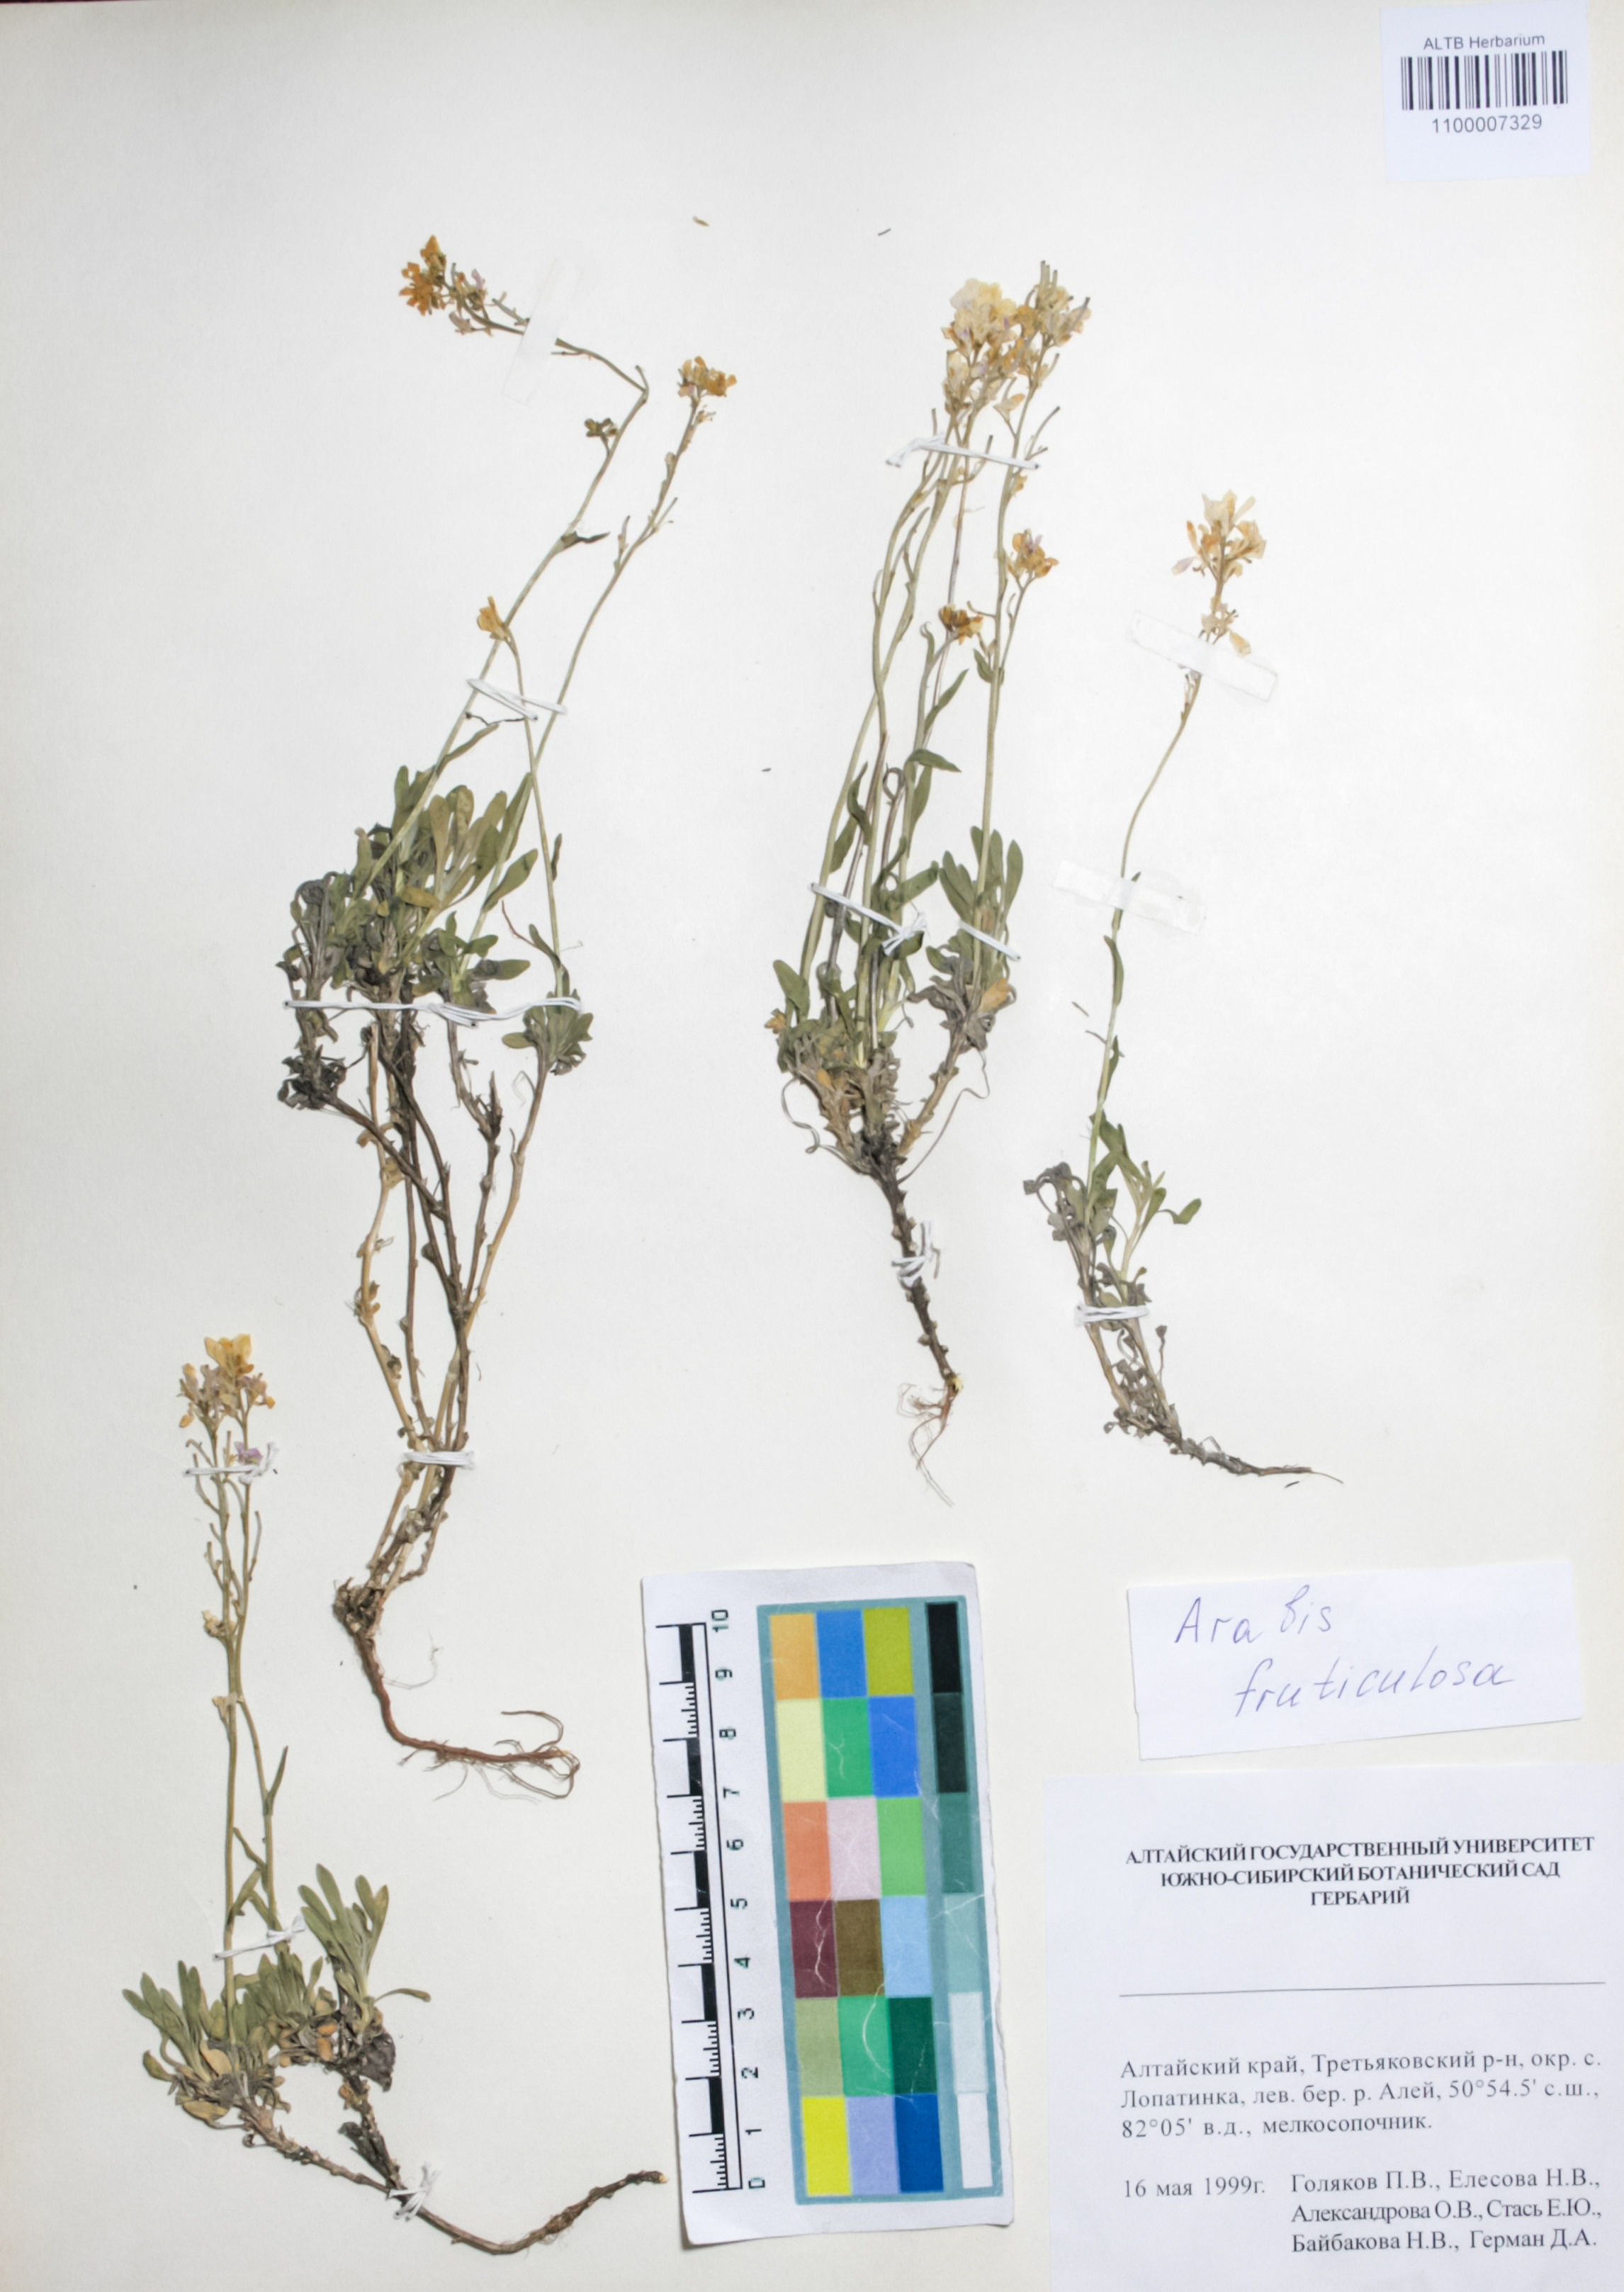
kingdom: Plantae
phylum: Tracheophyta
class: Magnoliopsida
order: Brassicales
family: Brassicaceae
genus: Dendroarabis
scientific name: Dendroarabis fruticulosa
